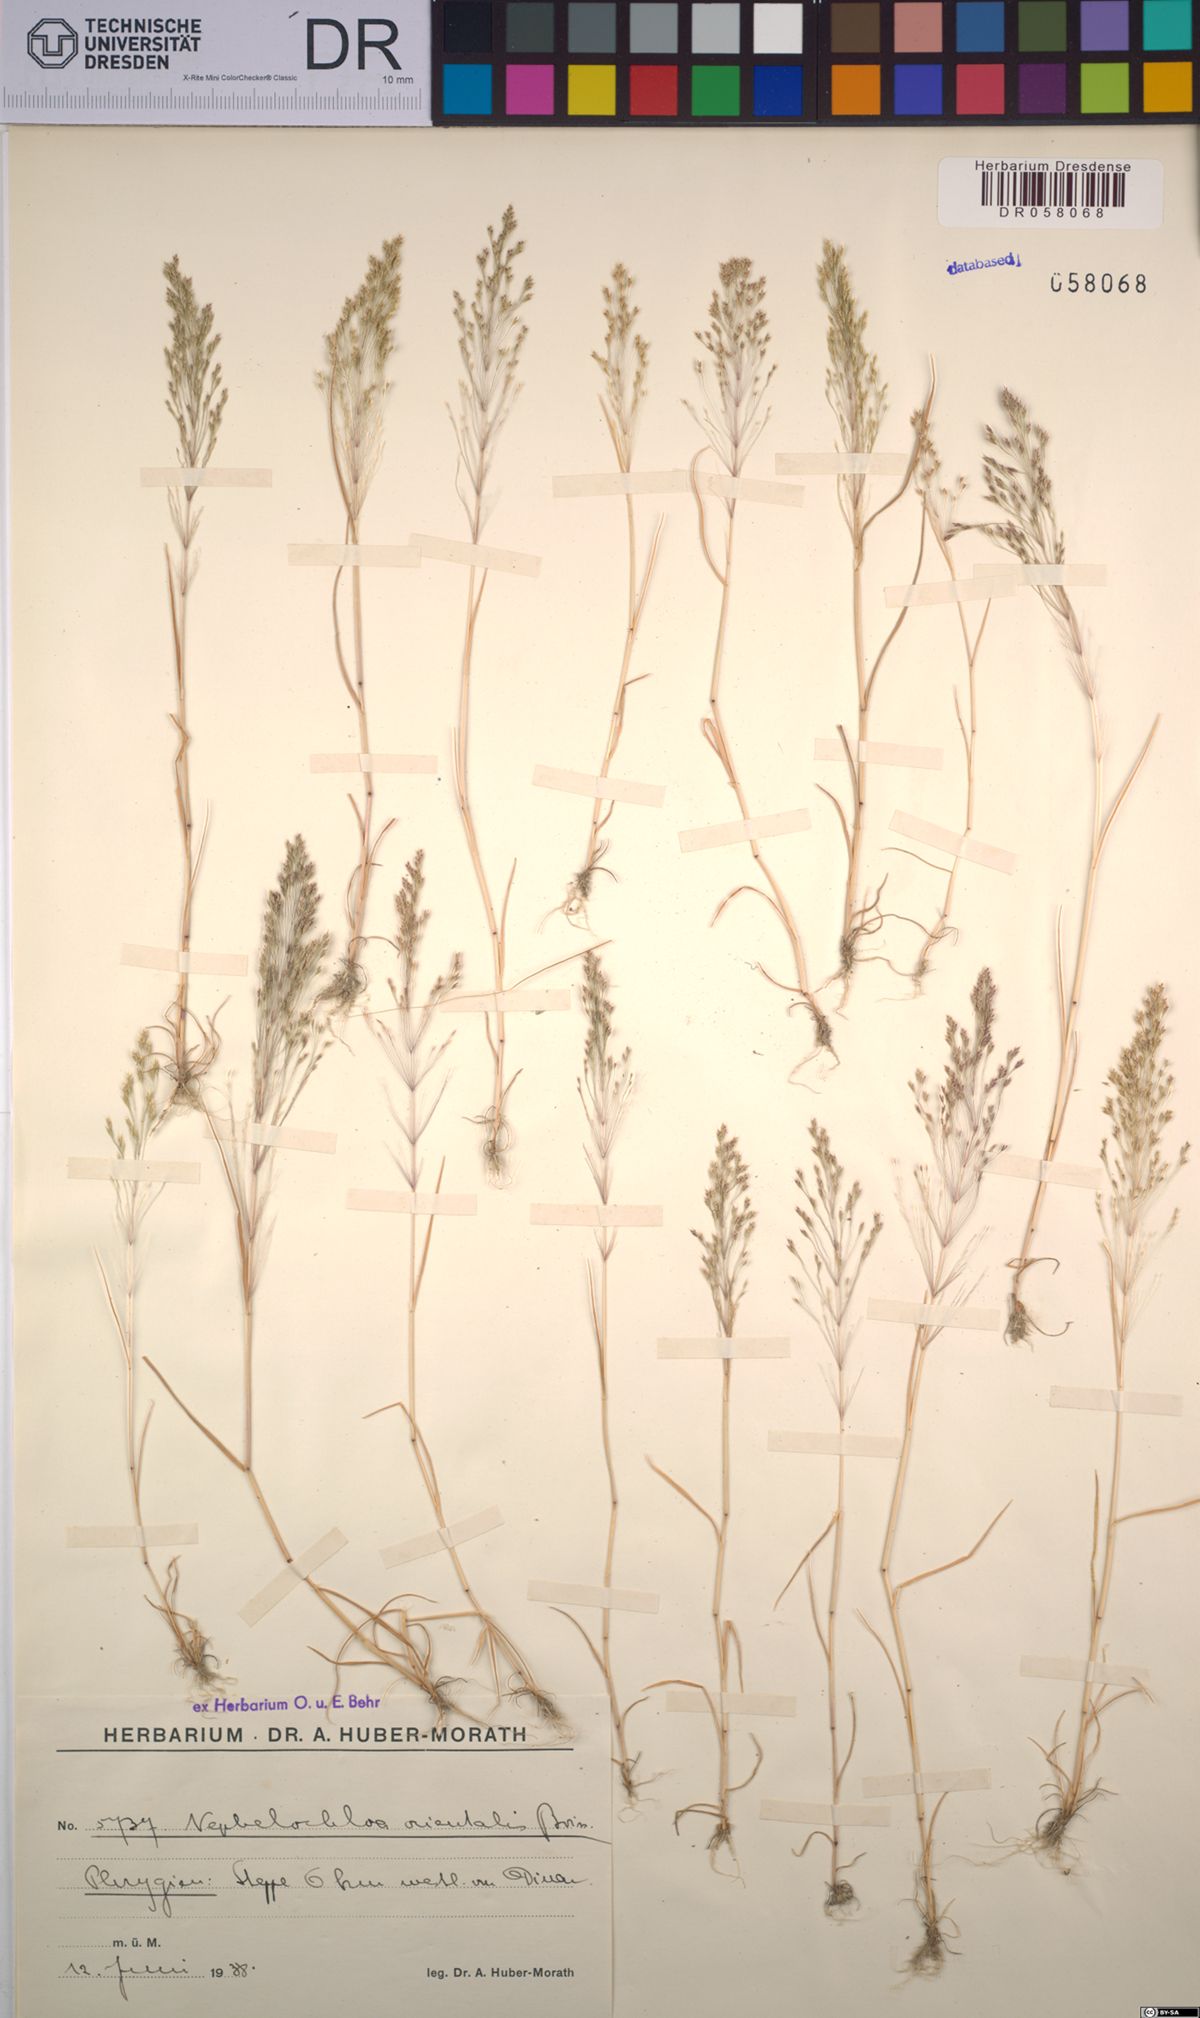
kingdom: Plantae
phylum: Tracheophyta
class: Liliopsida
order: Poales
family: Poaceae
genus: Nephelochloa
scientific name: Nephelochloa orientalis
